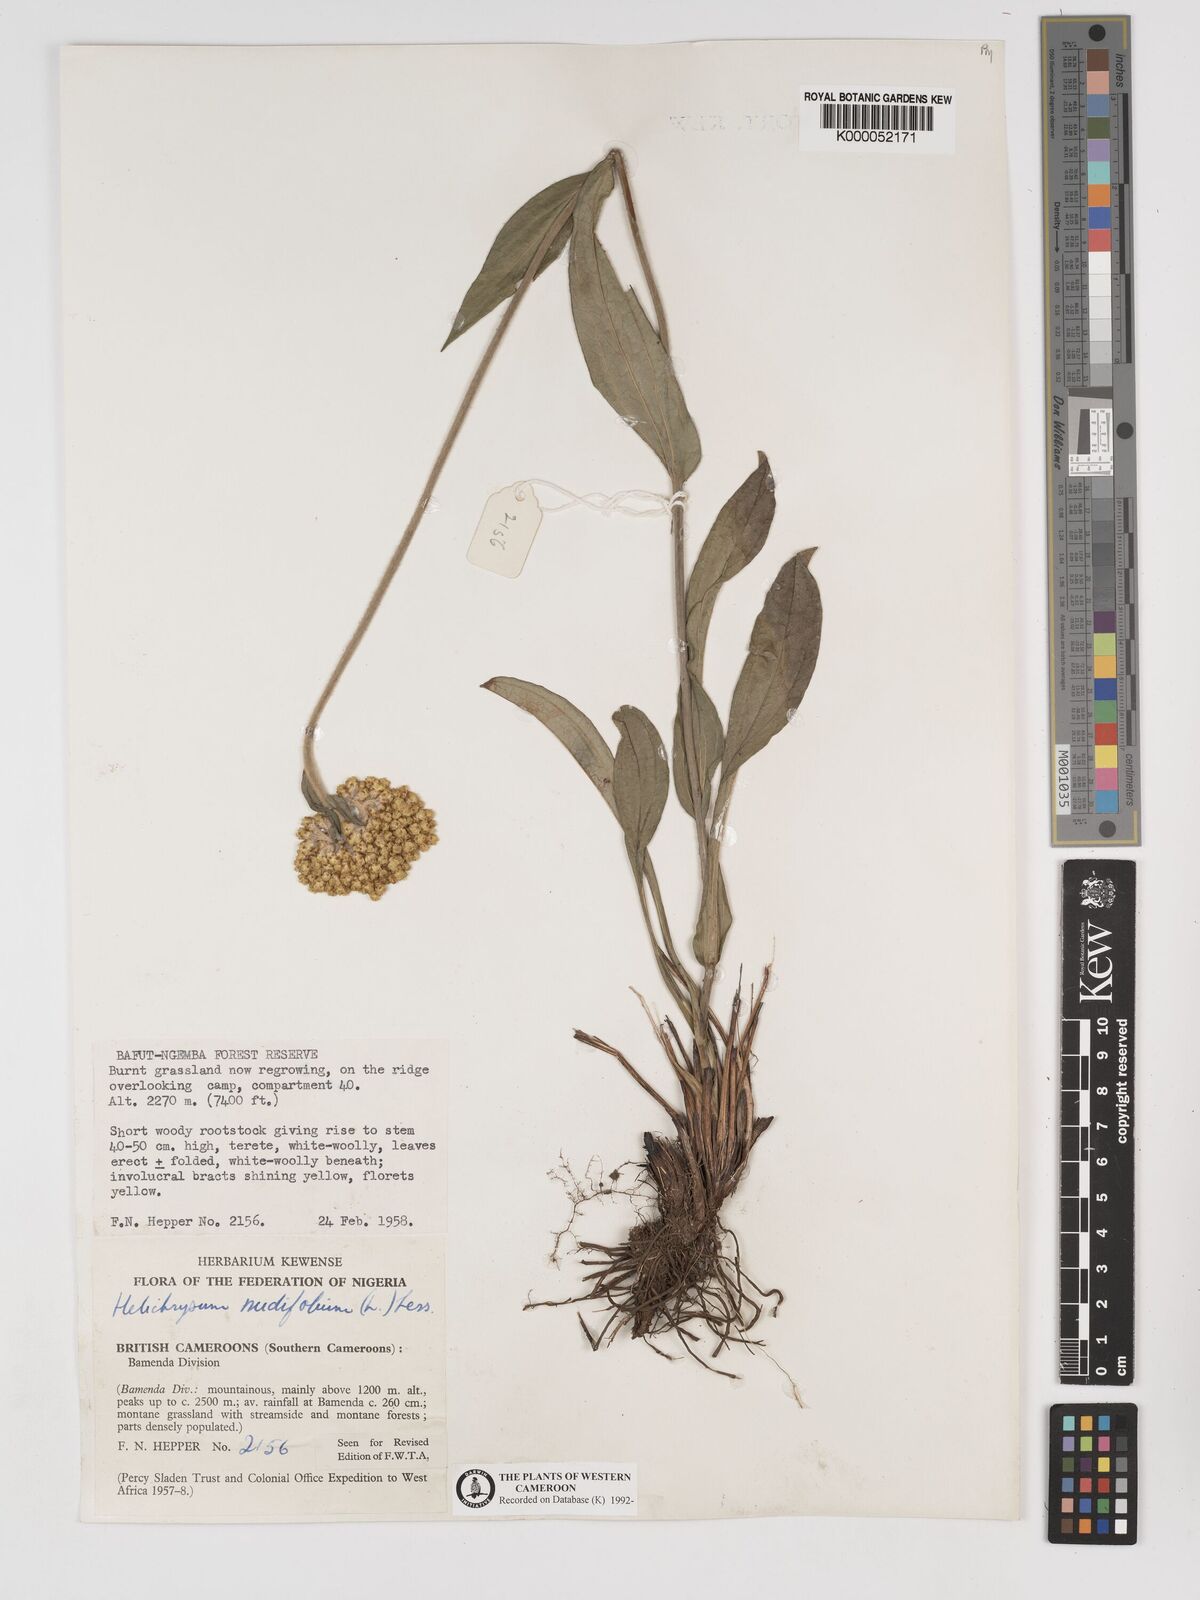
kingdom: Plantae
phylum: Tracheophyta
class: Magnoliopsida
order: Asterales
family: Asteraceae
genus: Helichrysum
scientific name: Helichrysum nudifolium
